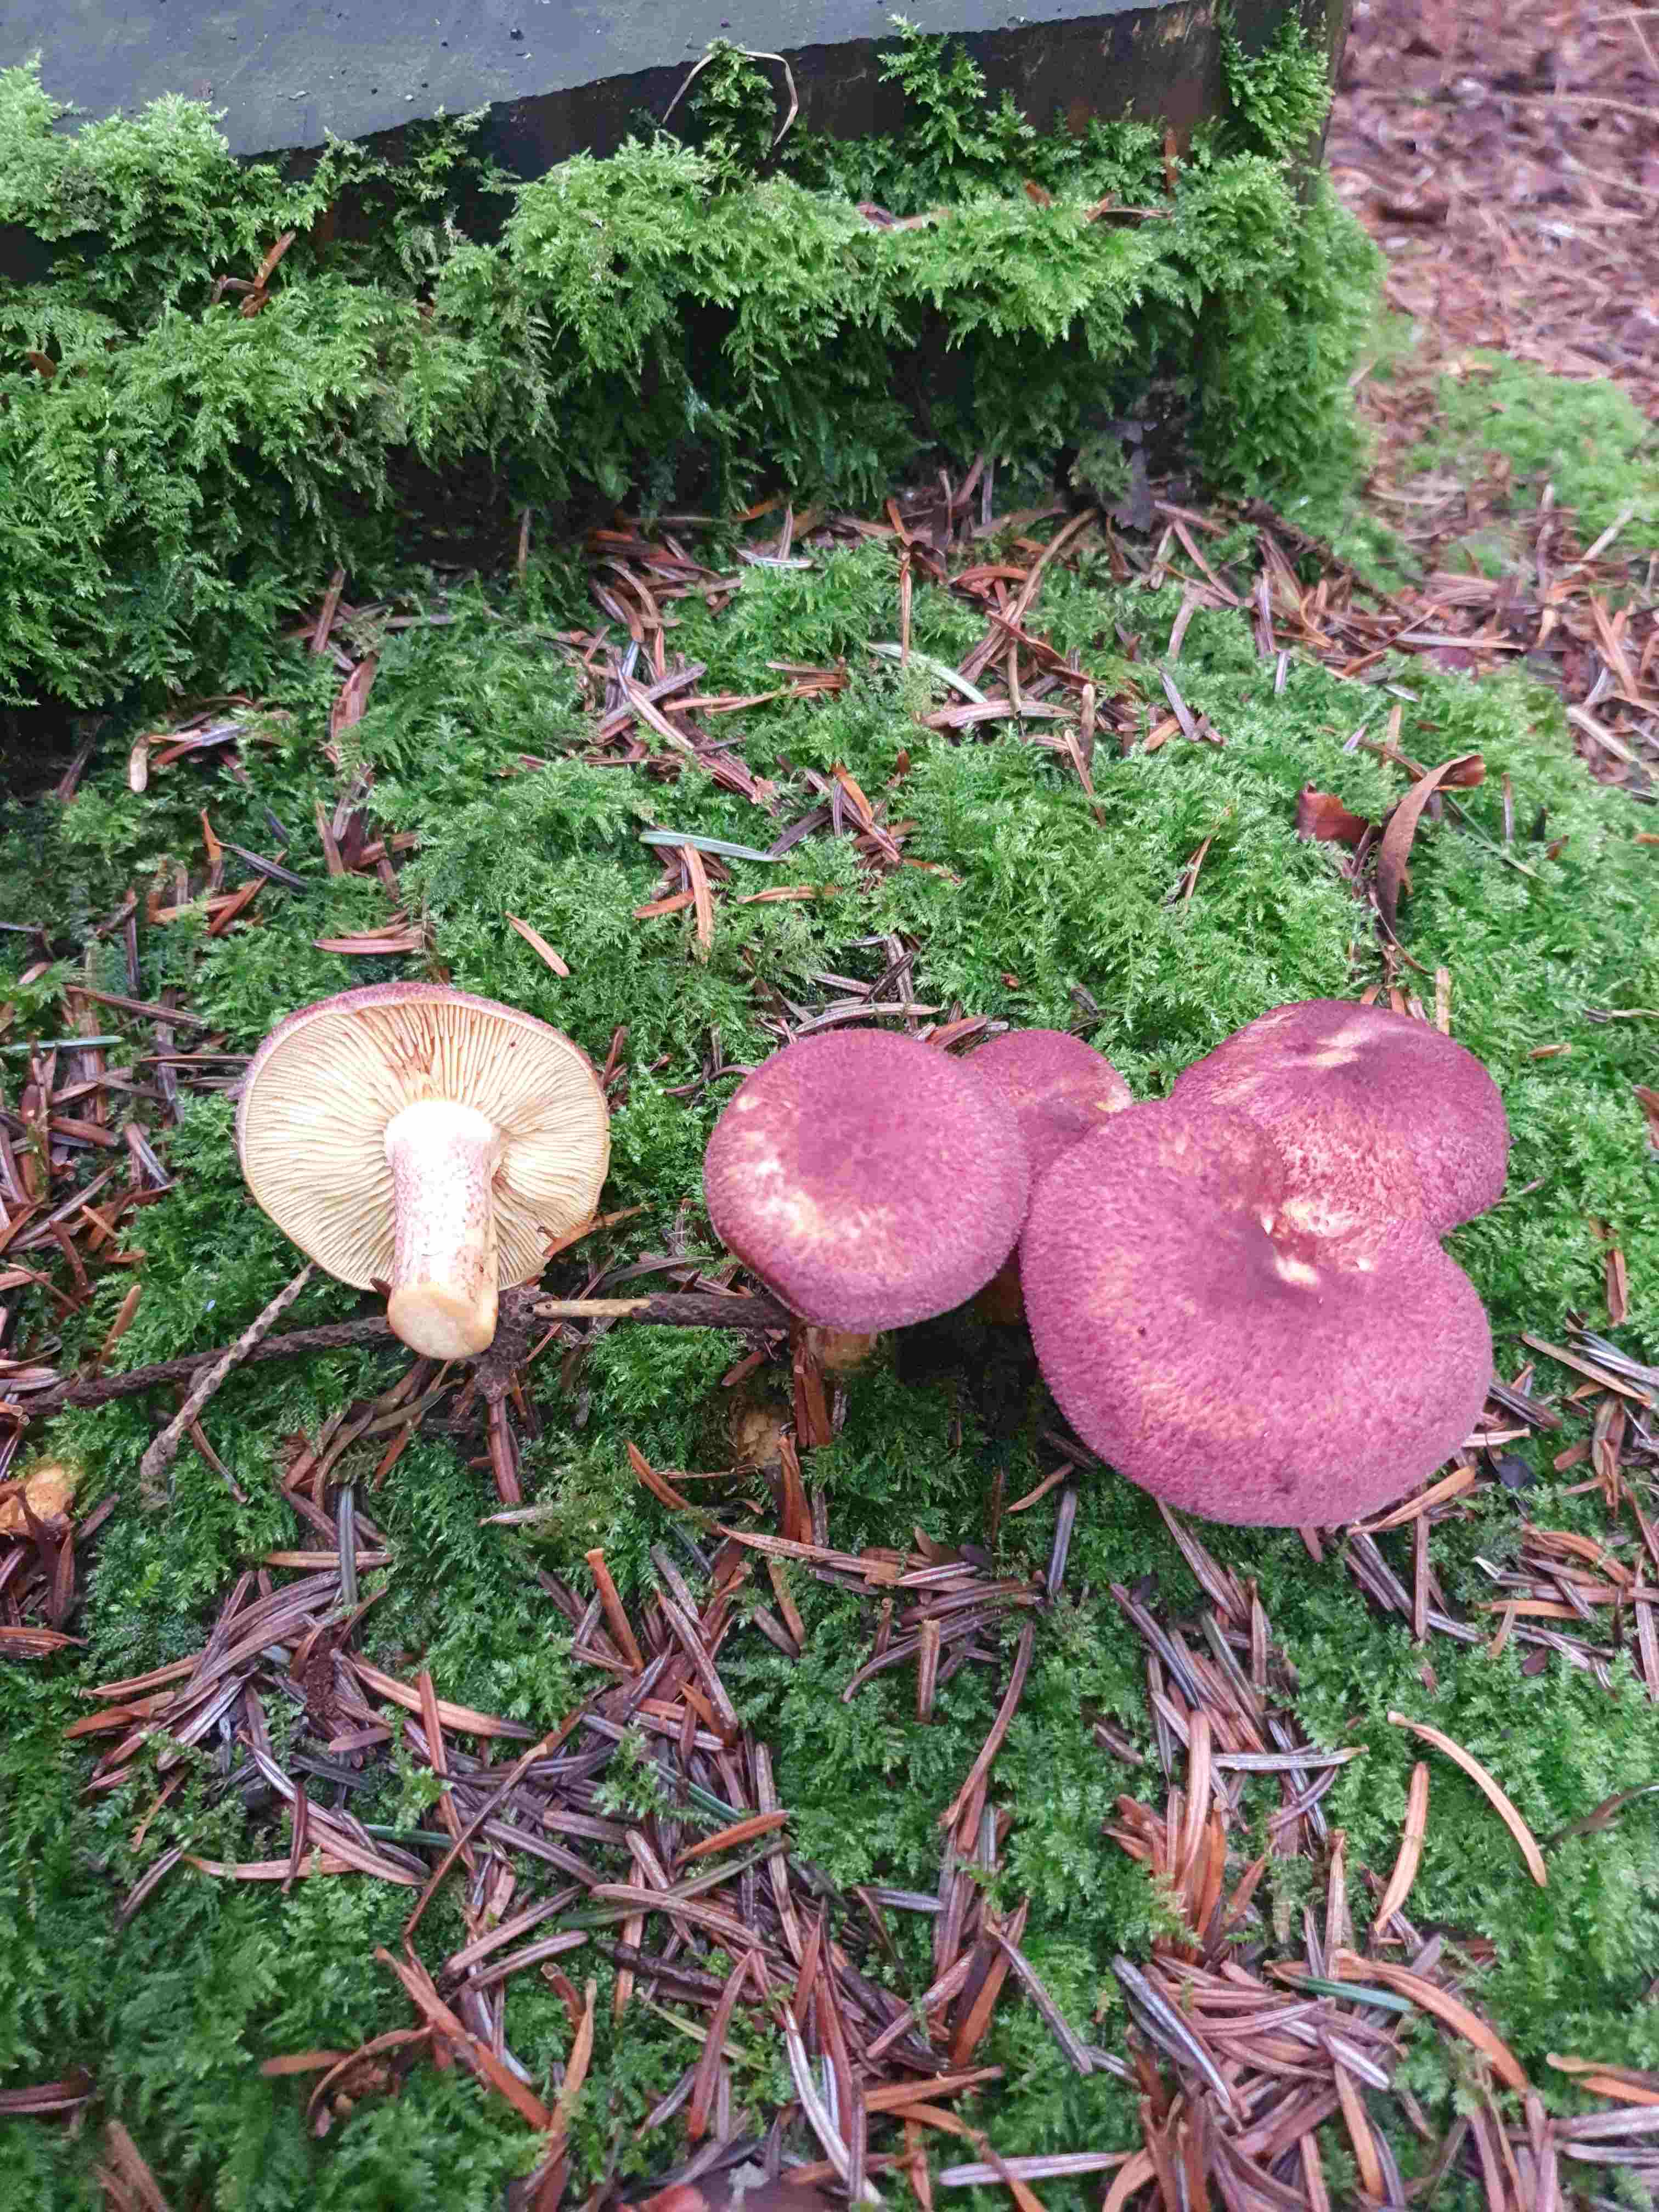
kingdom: Fungi
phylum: Basidiomycota
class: Agaricomycetes
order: Agaricales
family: Tricholomataceae
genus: Tricholomopsis
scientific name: Tricholomopsis rutilans
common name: purpur-væbnerhat
